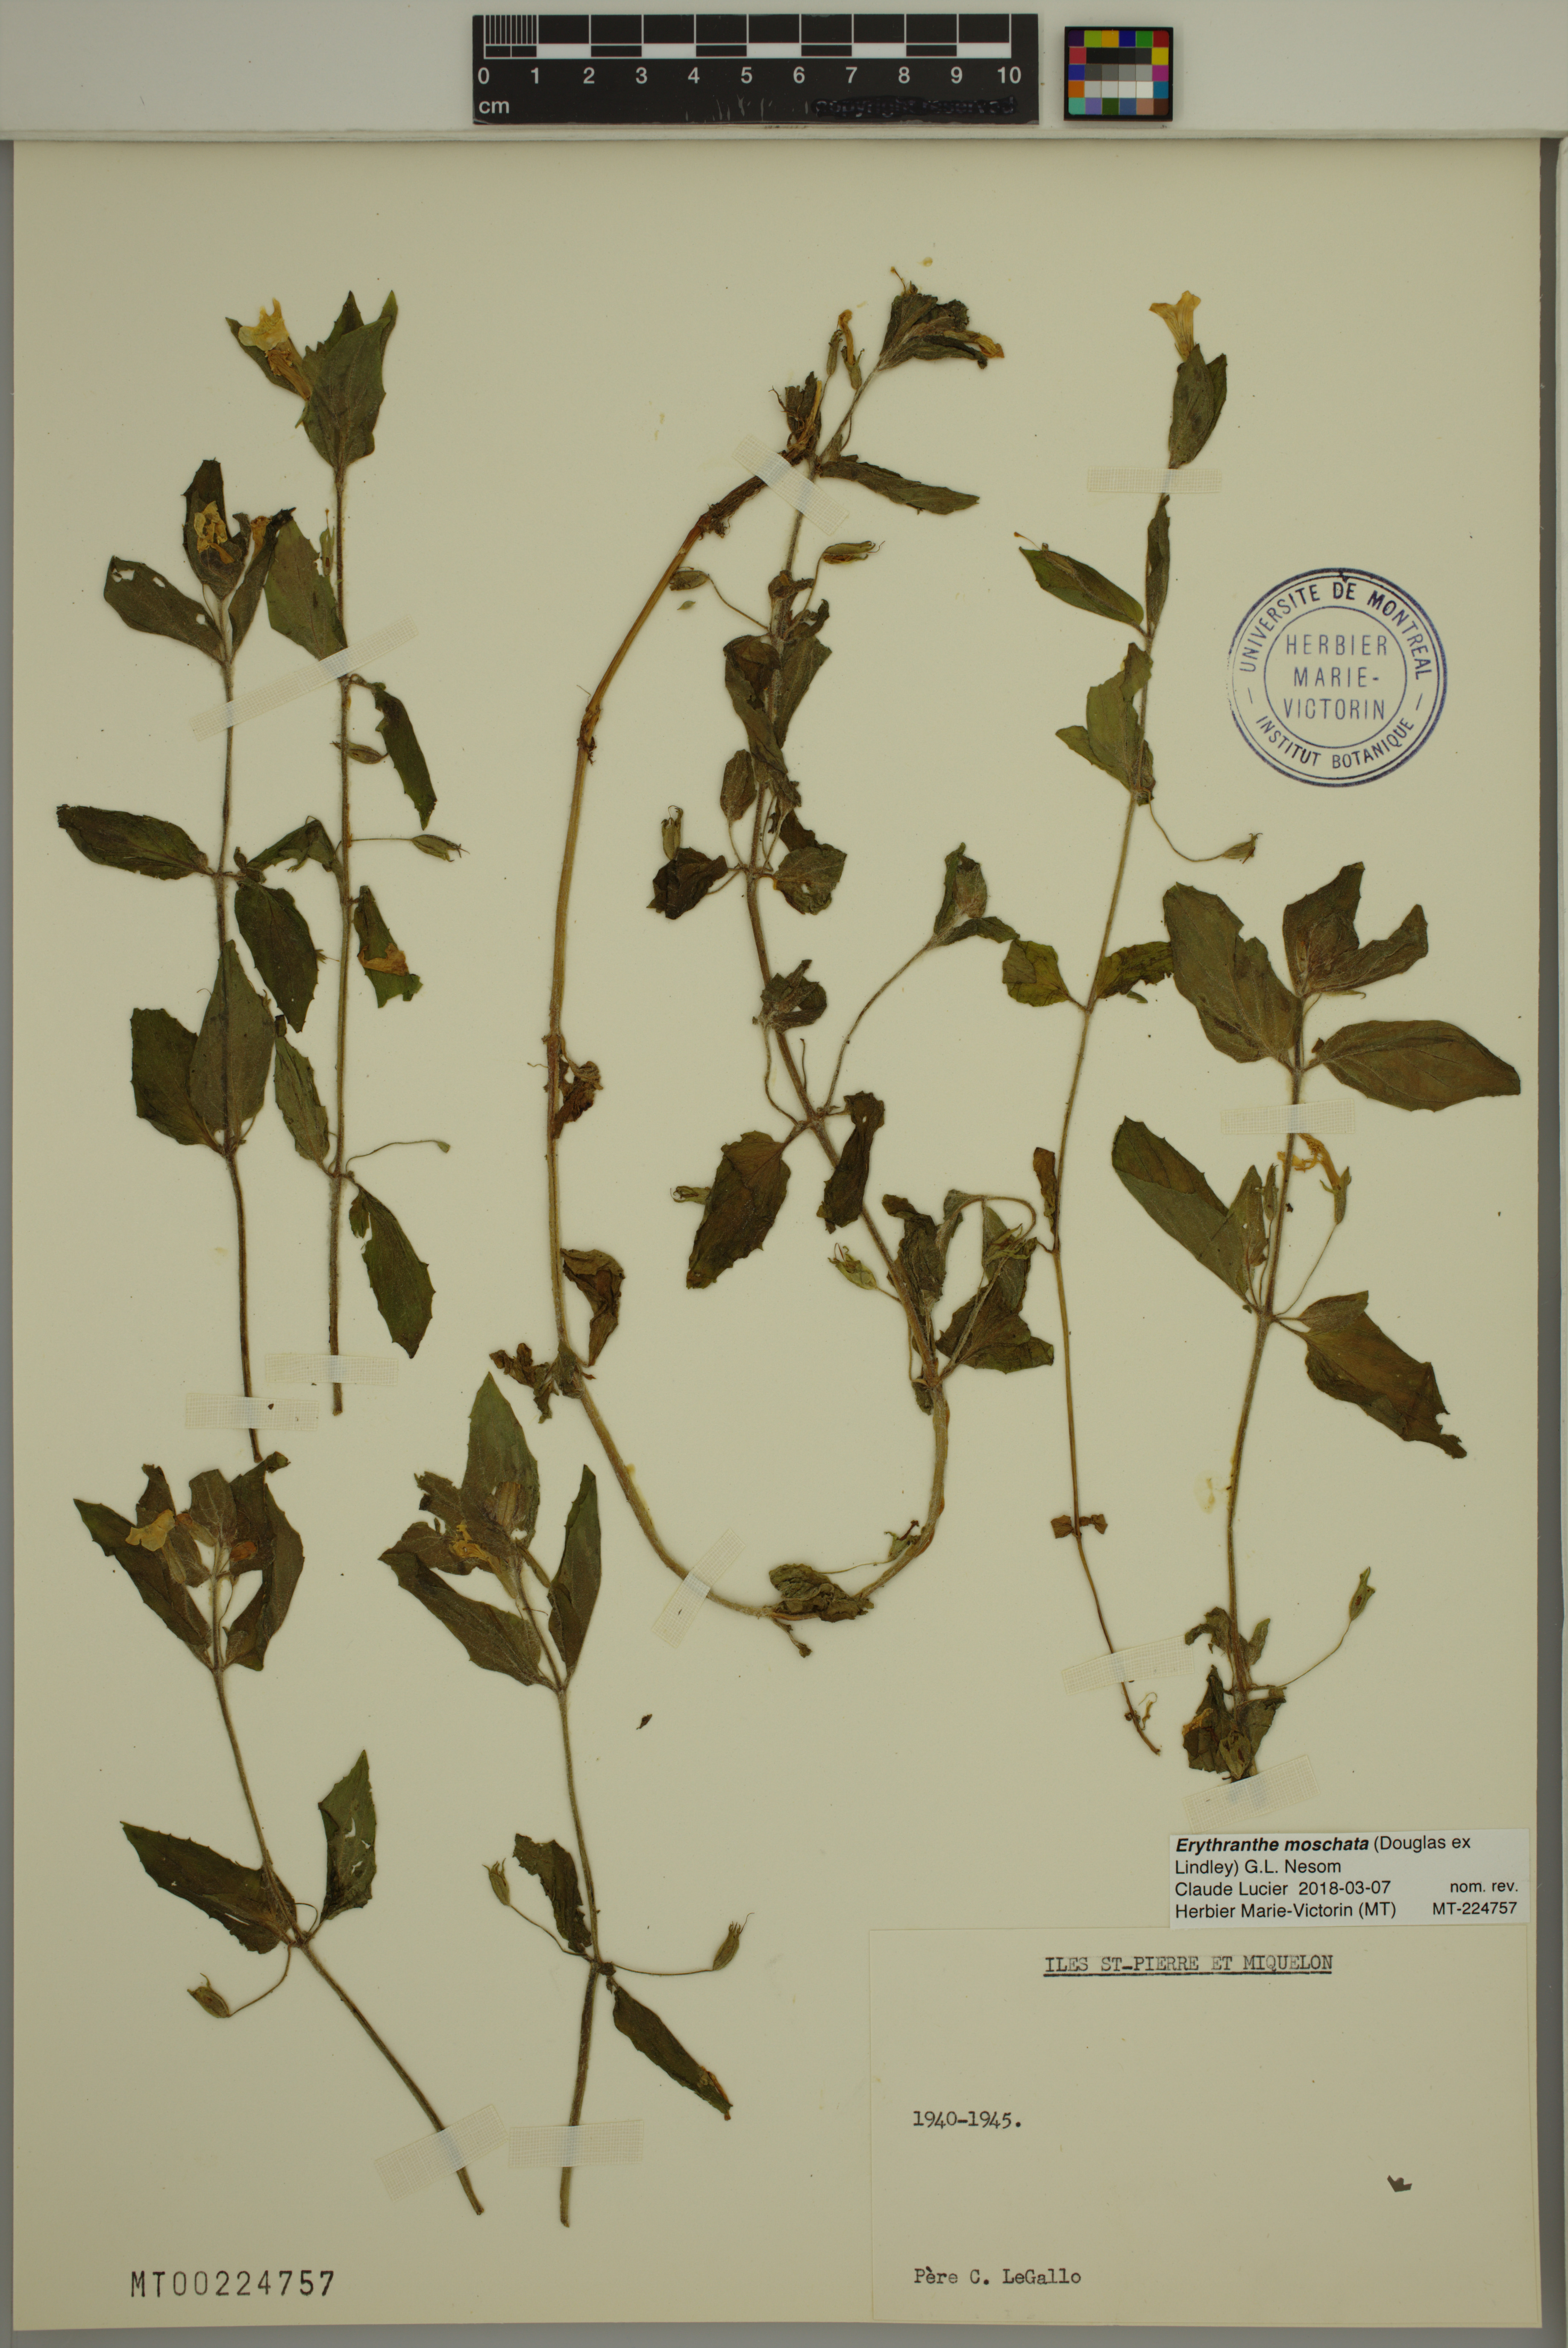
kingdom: Plantae
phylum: Tracheophyta
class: Magnoliopsida
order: Lamiales
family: Phrymaceae
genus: Erythranthe
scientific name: Erythranthe moschata
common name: Muskflower
